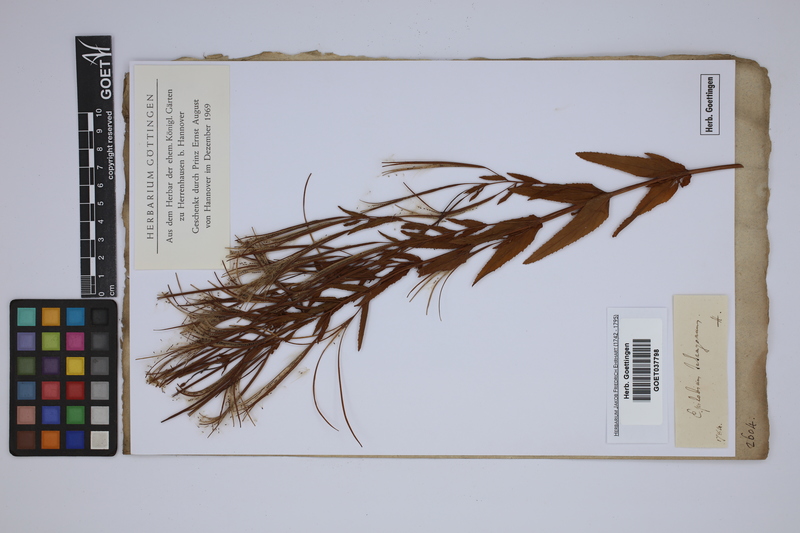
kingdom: Plantae
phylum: Tracheophyta
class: Magnoliopsida
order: Myrtales
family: Onagraceae
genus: Epilobium
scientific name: Epilobium tetragonum
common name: Square-stemmed willowherb
